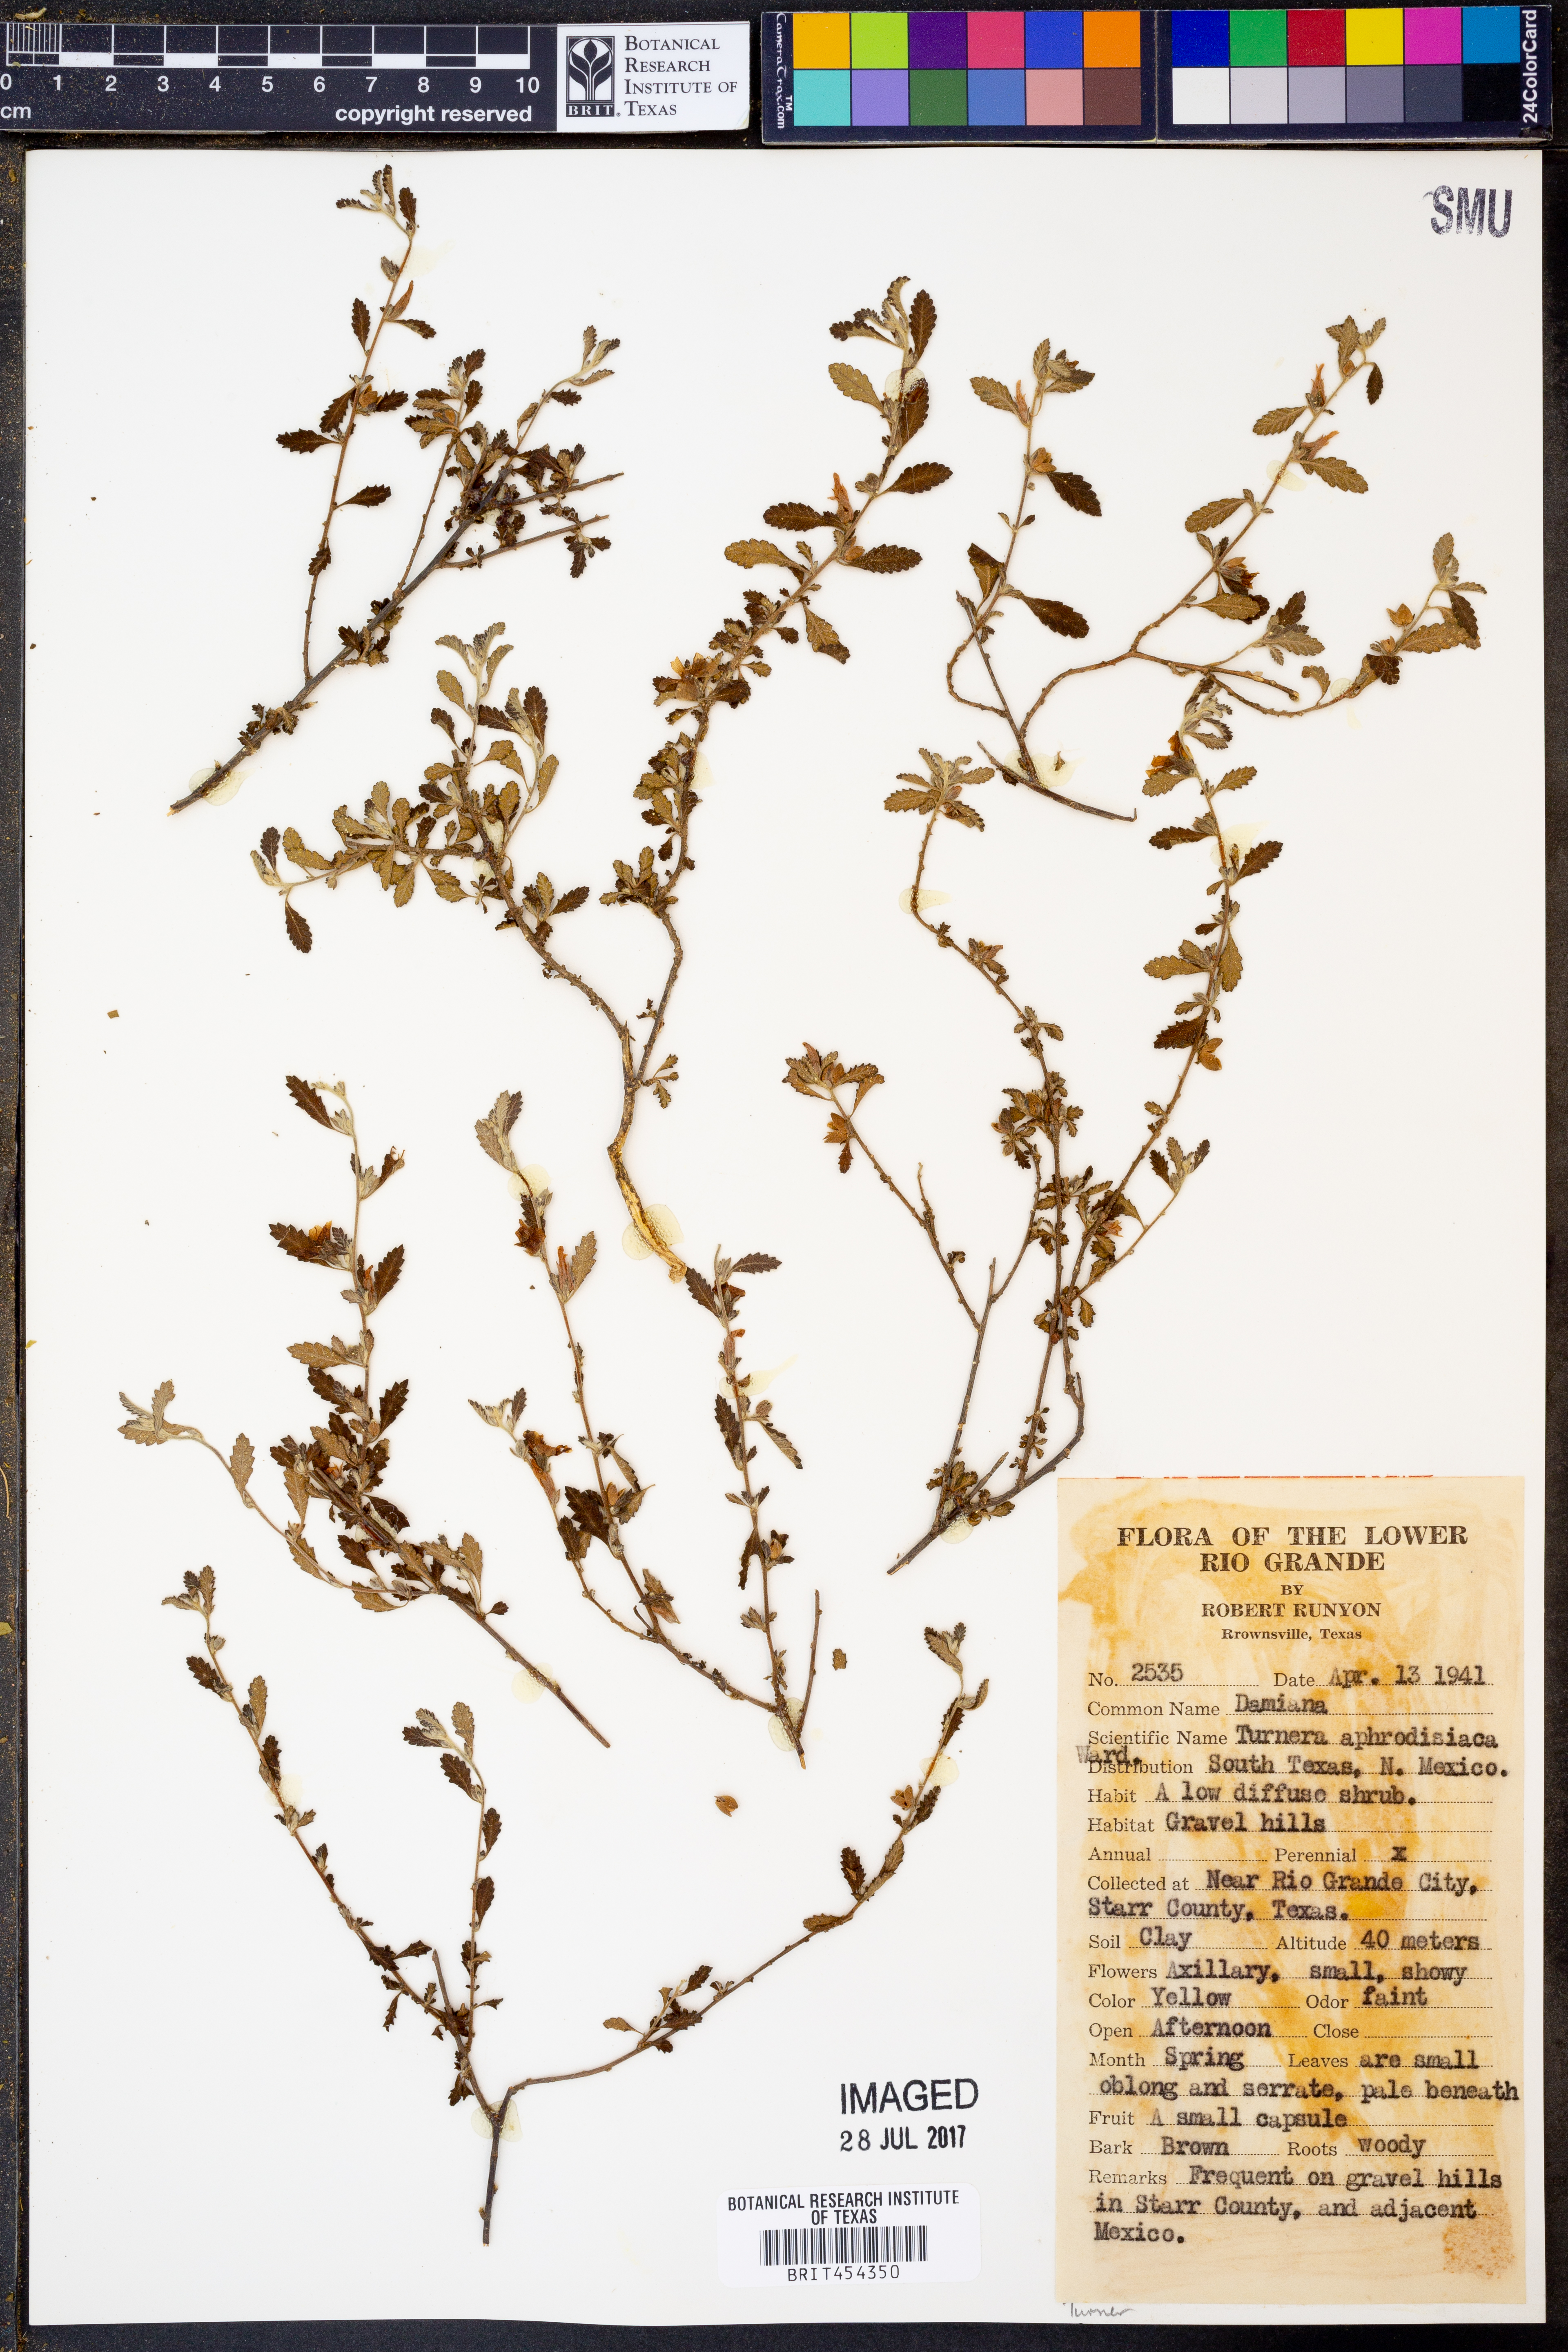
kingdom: Plantae
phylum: Tracheophyta
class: Magnoliopsida
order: Malpighiales
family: Turneraceae
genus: Turnera
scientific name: Turnera diffusa
